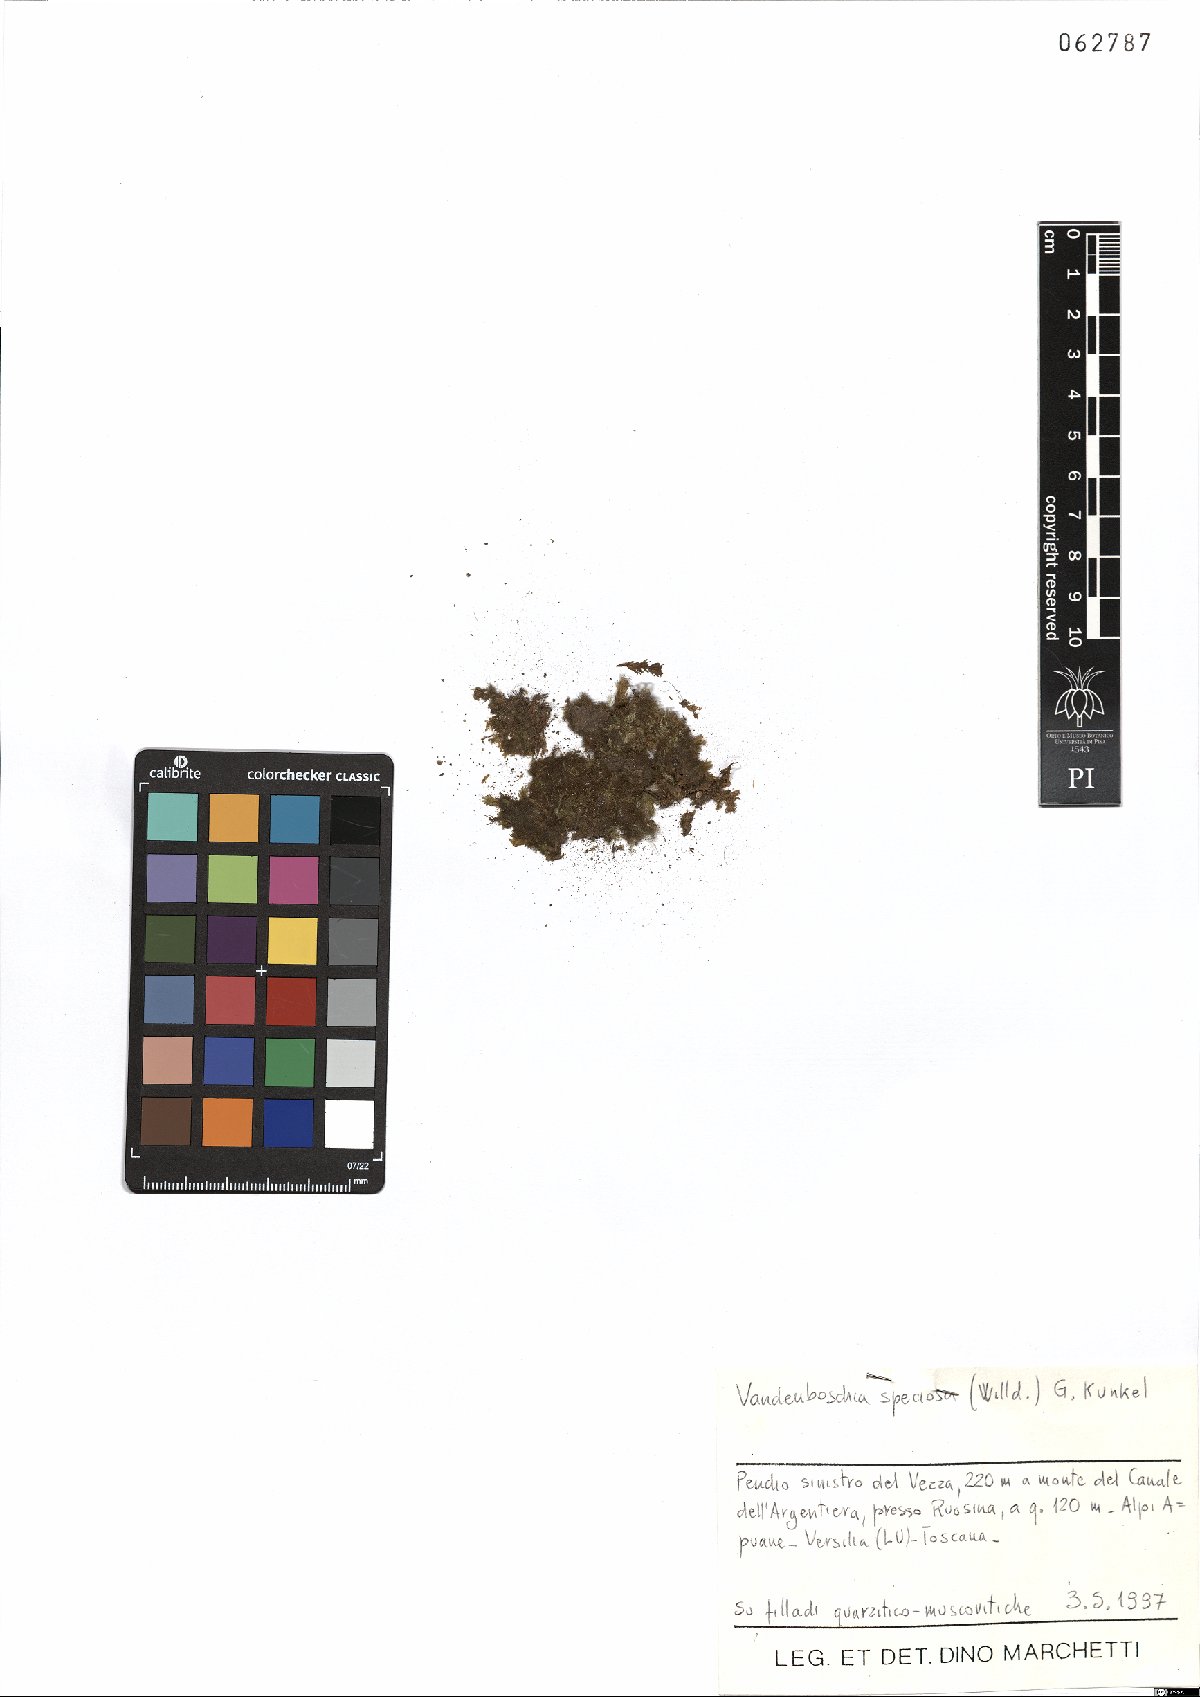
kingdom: Plantae
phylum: Tracheophyta
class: Polypodiopsida
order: Hymenophyllales
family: Hymenophyllaceae
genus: Vandenboschia
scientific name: Vandenboschia speciosa
